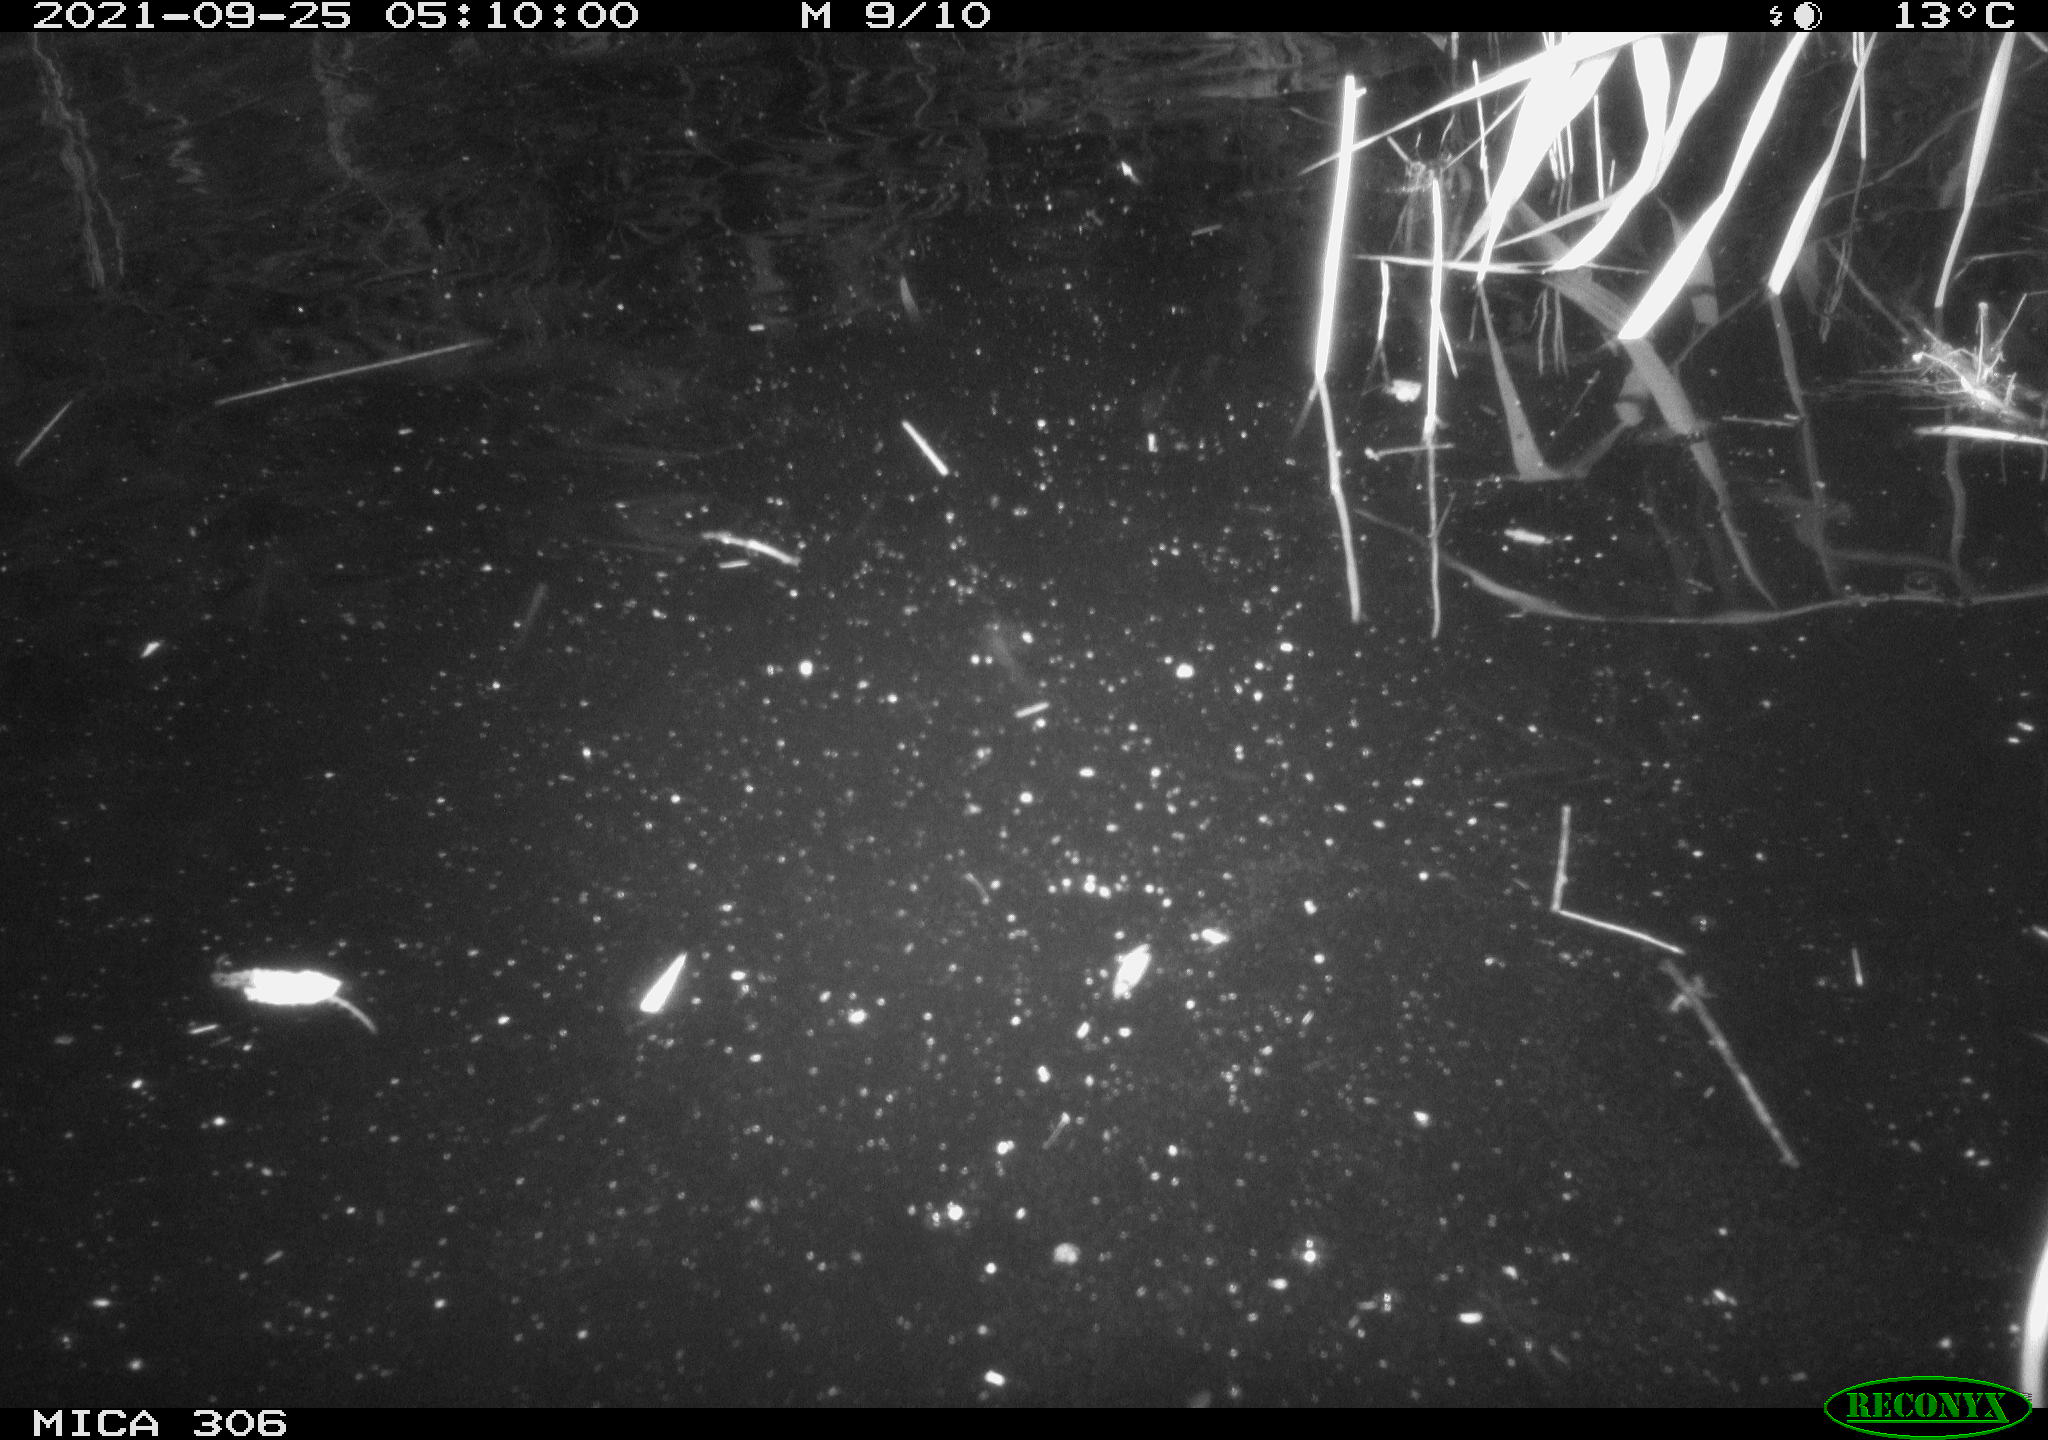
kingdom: Animalia
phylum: Chordata
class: Mammalia
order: Rodentia
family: Cricetidae
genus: Ondatra
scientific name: Ondatra zibethicus
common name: Muskrat
